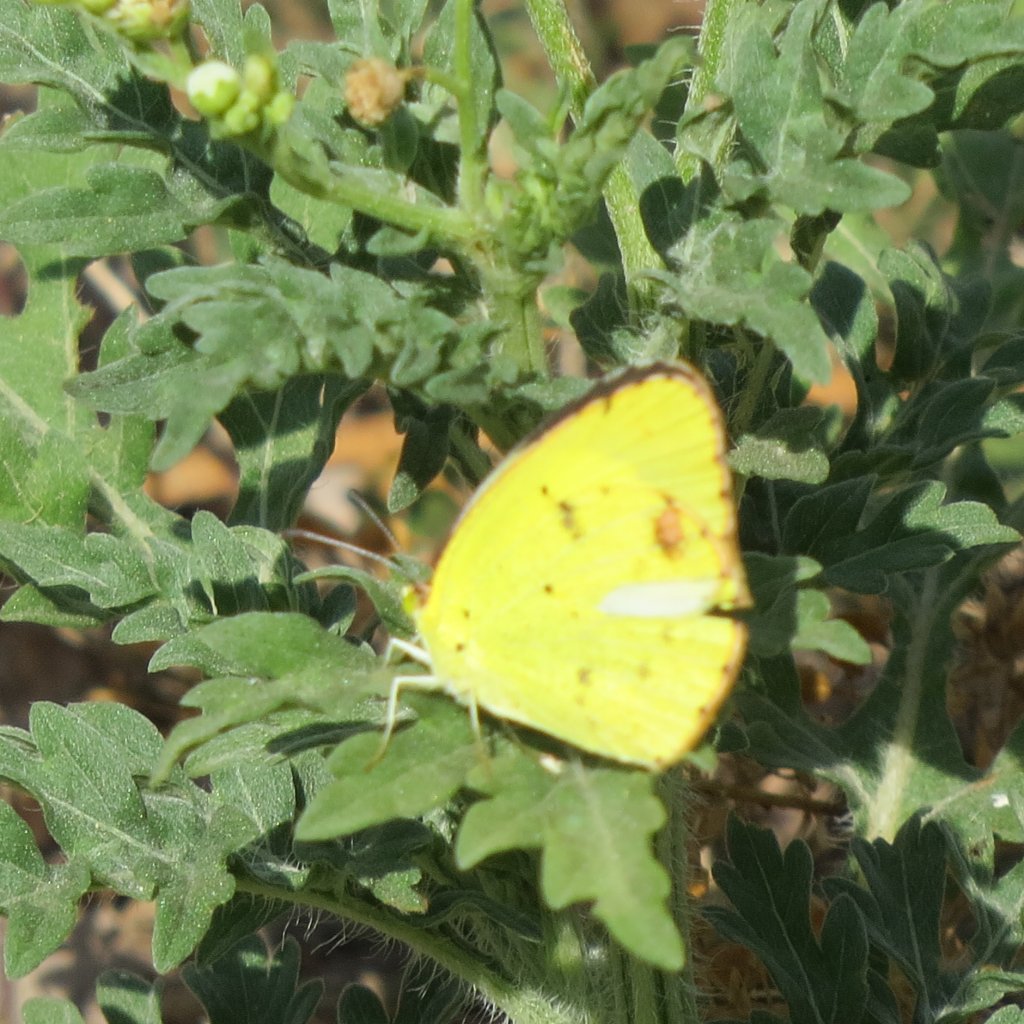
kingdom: Animalia
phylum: Arthropoda
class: Insecta
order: Lepidoptera
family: Pieridae
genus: Pyrisitia
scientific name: Pyrisitia lisa
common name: Little Yellow
